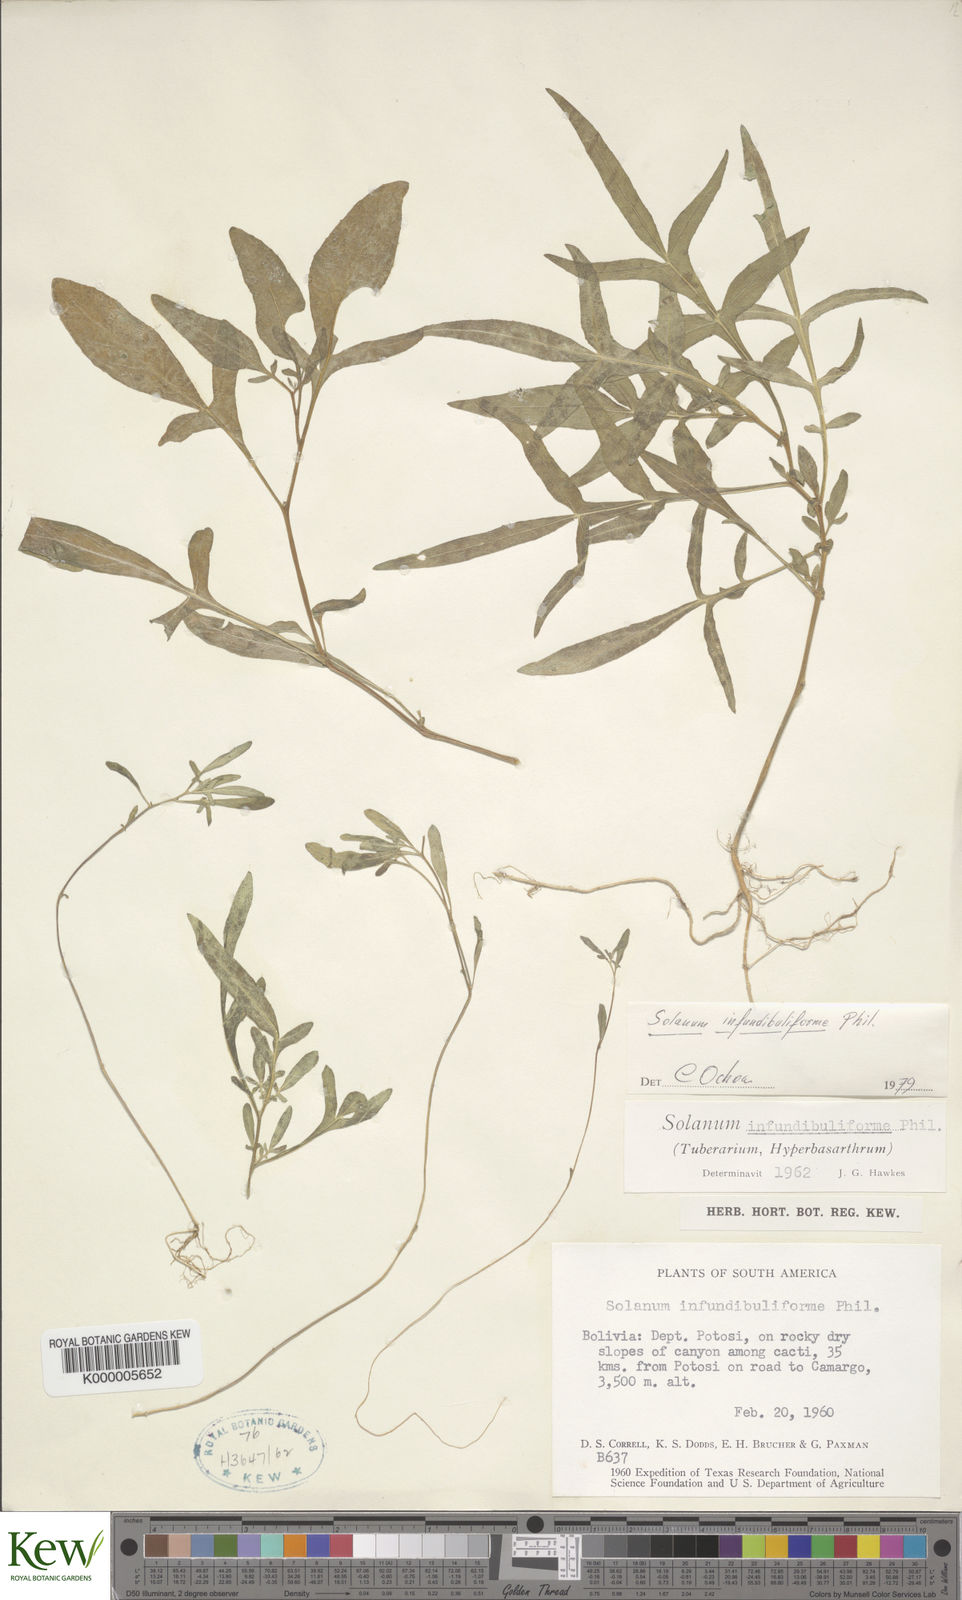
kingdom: Plantae
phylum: Tracheophyta
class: Magnoliopsida
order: Solanales
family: Solanaceae
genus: Solanum
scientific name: Solanum infundibuliforme
